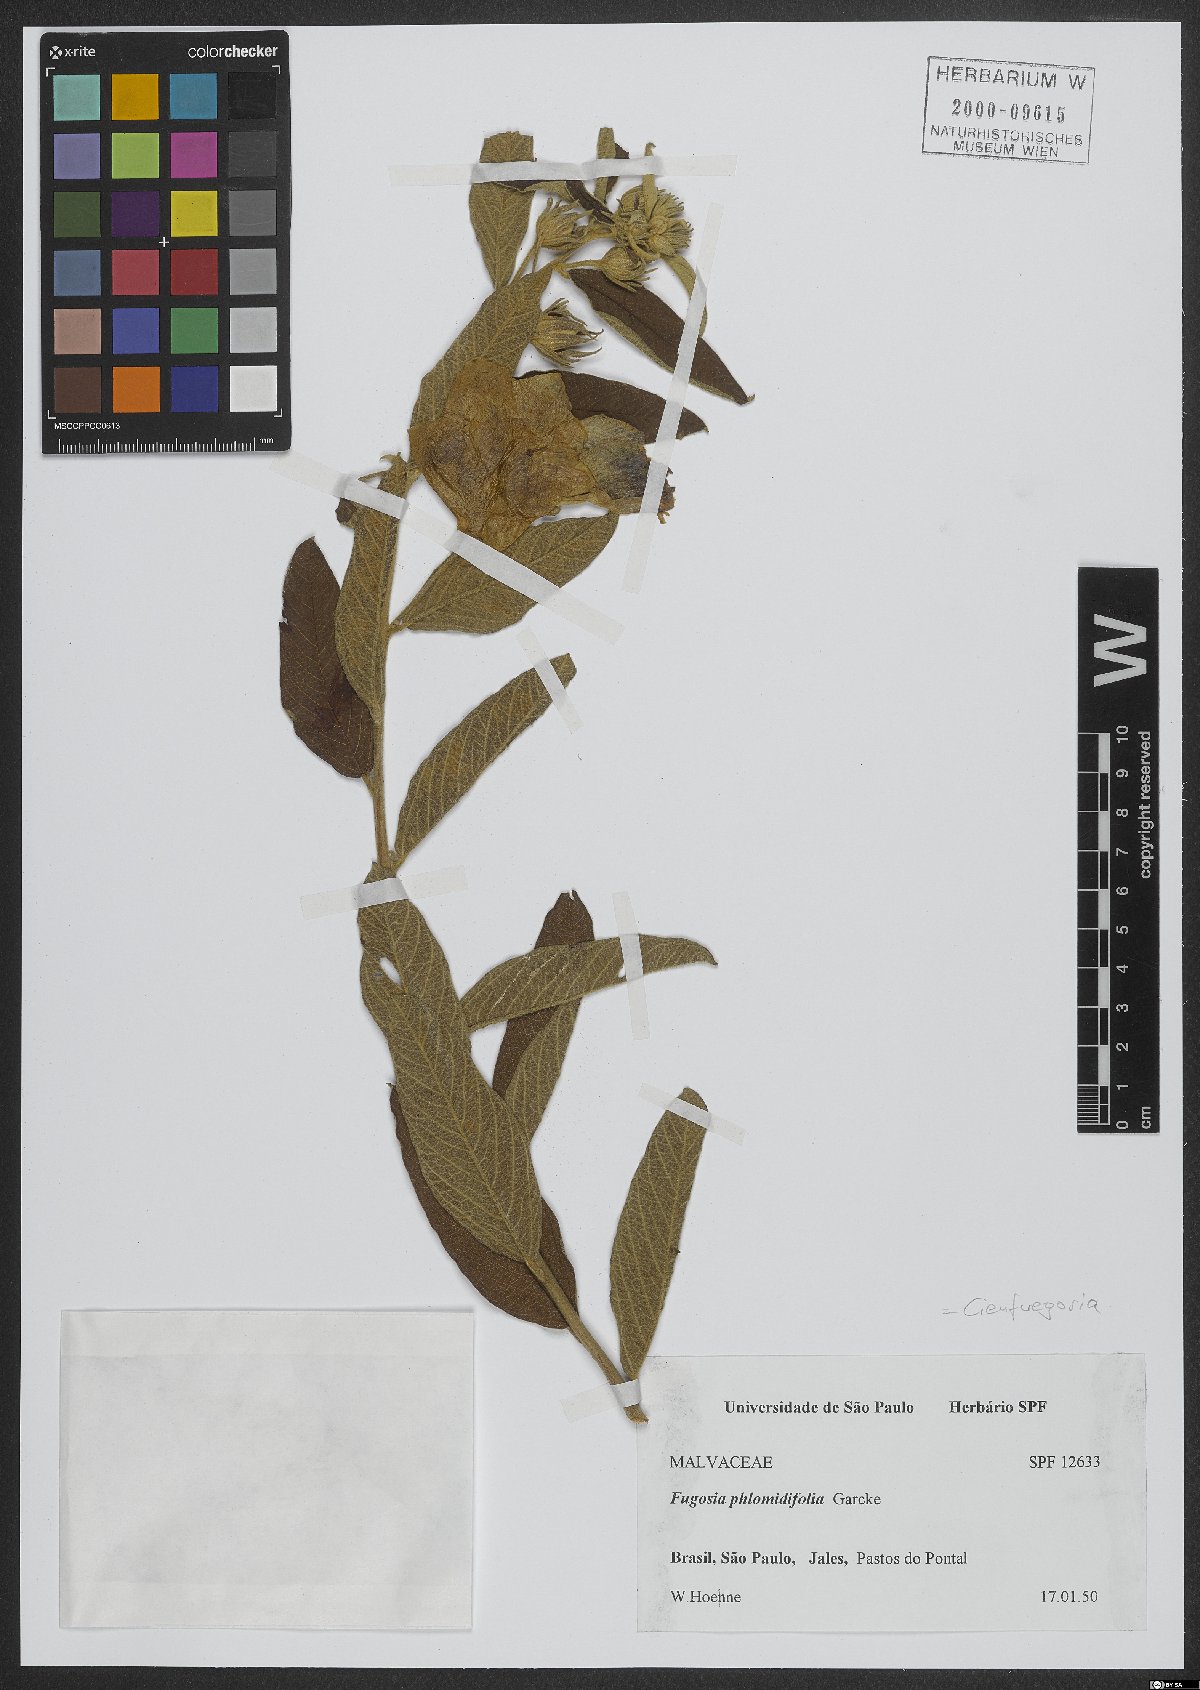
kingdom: Plantae
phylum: Tracheophyta
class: Magnoliopsida
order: Malvales
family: Malvaceae
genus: Cienfuegosia
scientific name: Cienfuegosia affinis
